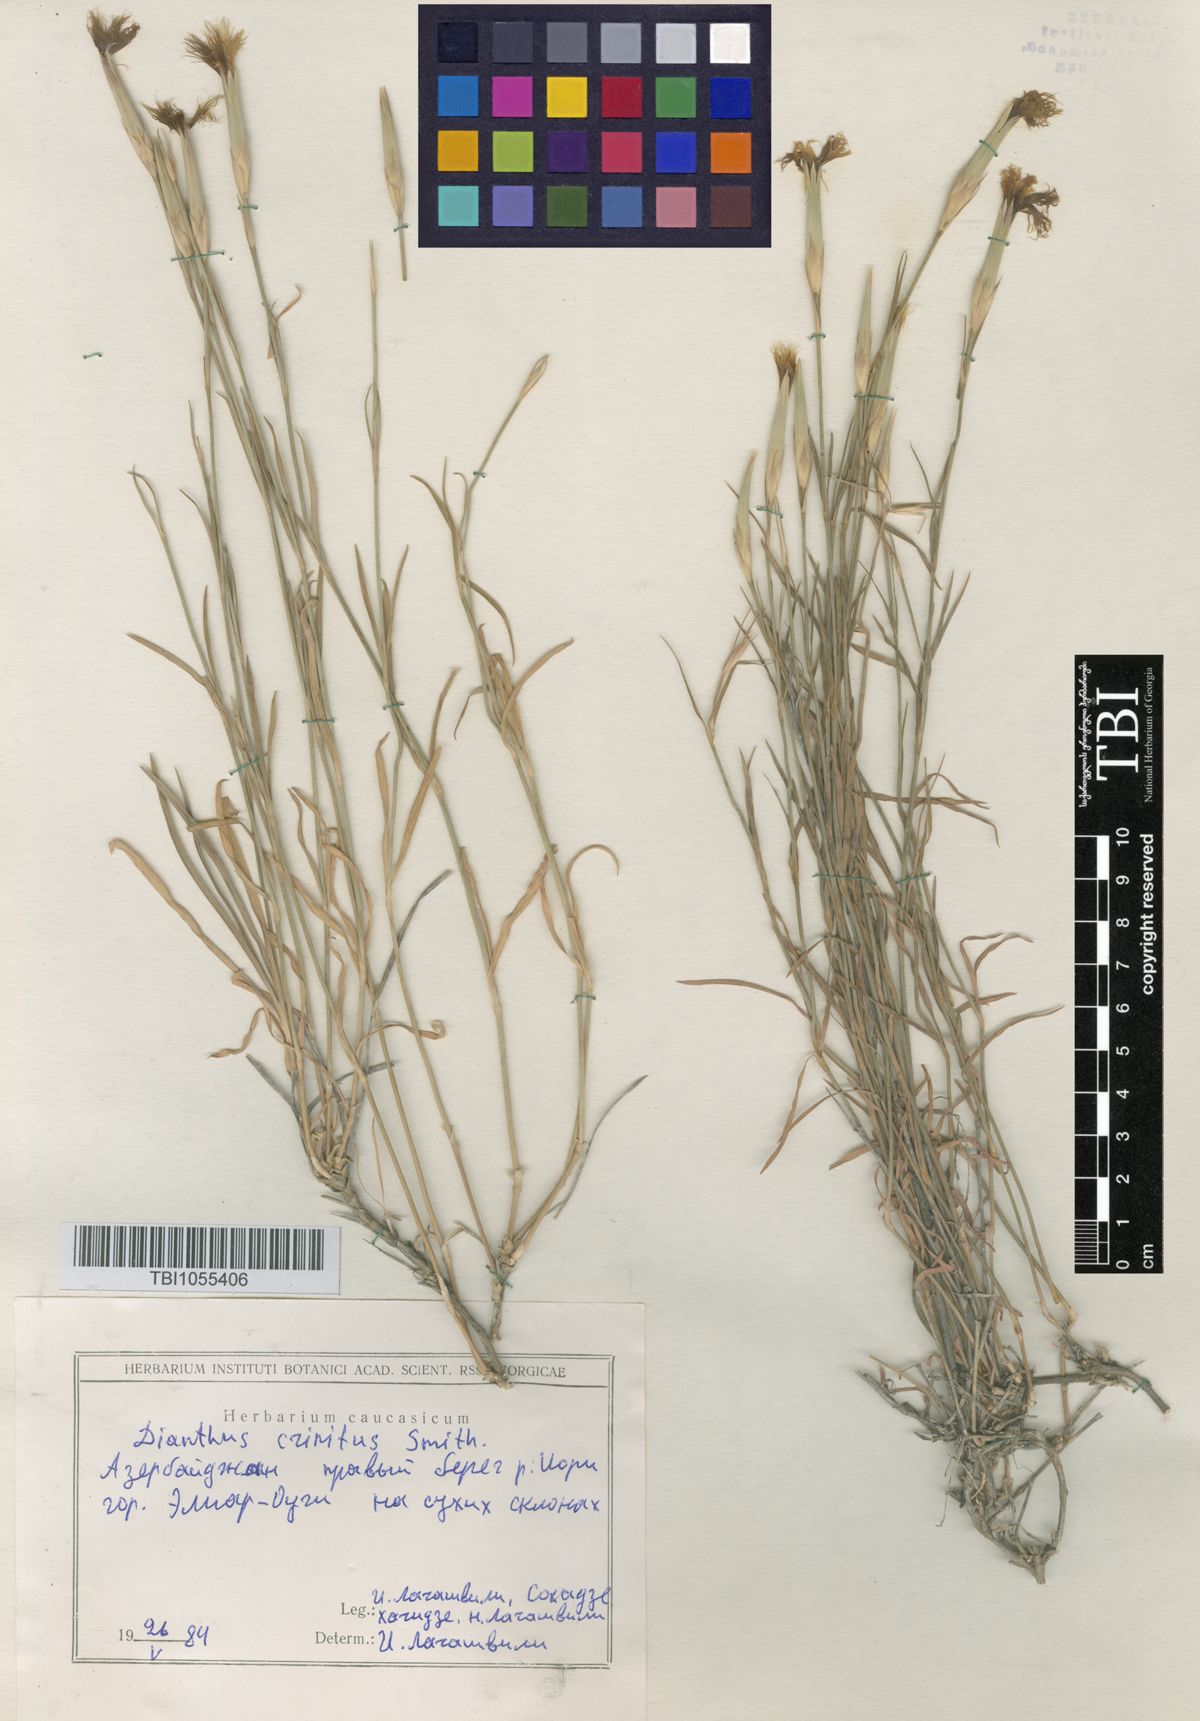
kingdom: Plantae
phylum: Tracheophyta
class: Magnoliopsida
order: Caryophyllales
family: Caryophyllaceae
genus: Dianthus
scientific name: Dianthus crinitus
